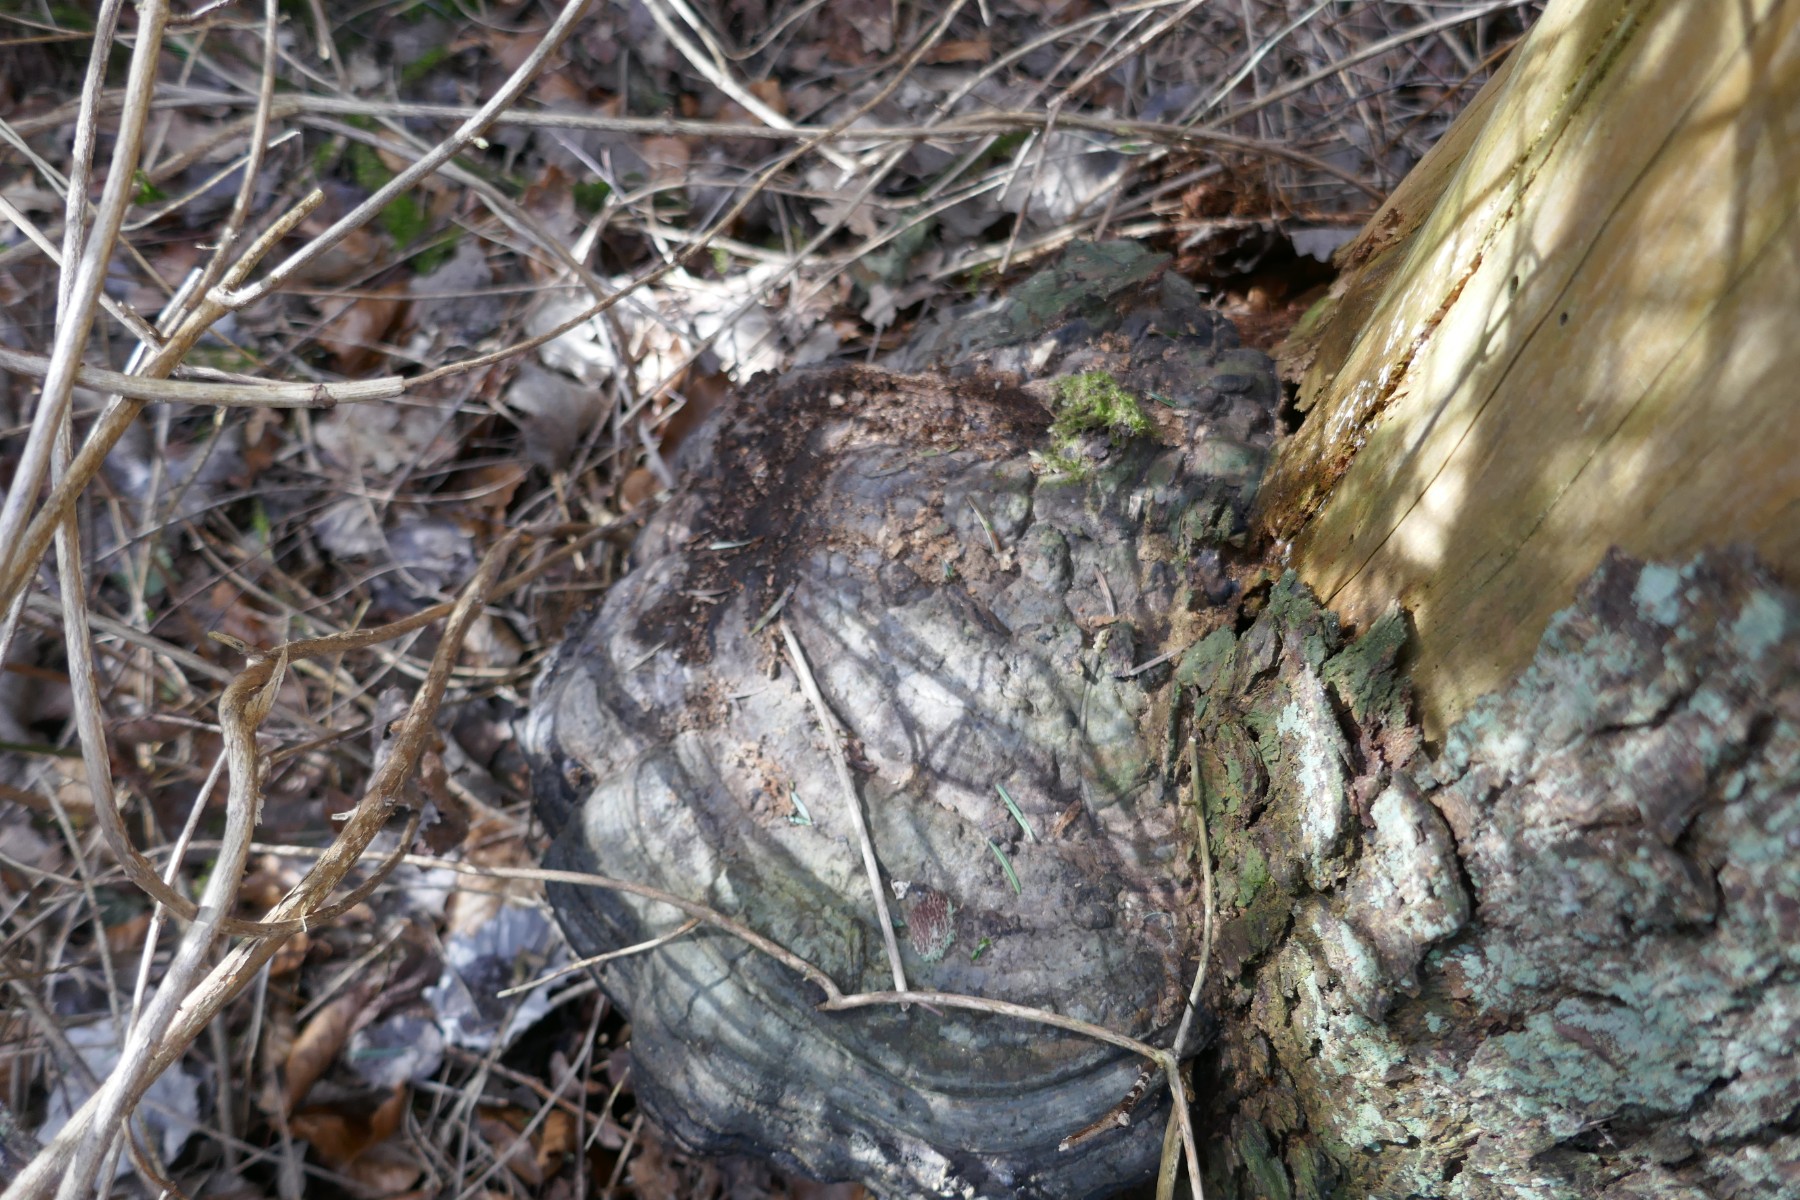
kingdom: Fungi
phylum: Basidiomycota
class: Agaricomycetes
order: Polyporales
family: Polyporaceae
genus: Fomes
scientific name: Fomes fomentarius
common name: tøndersvamp
